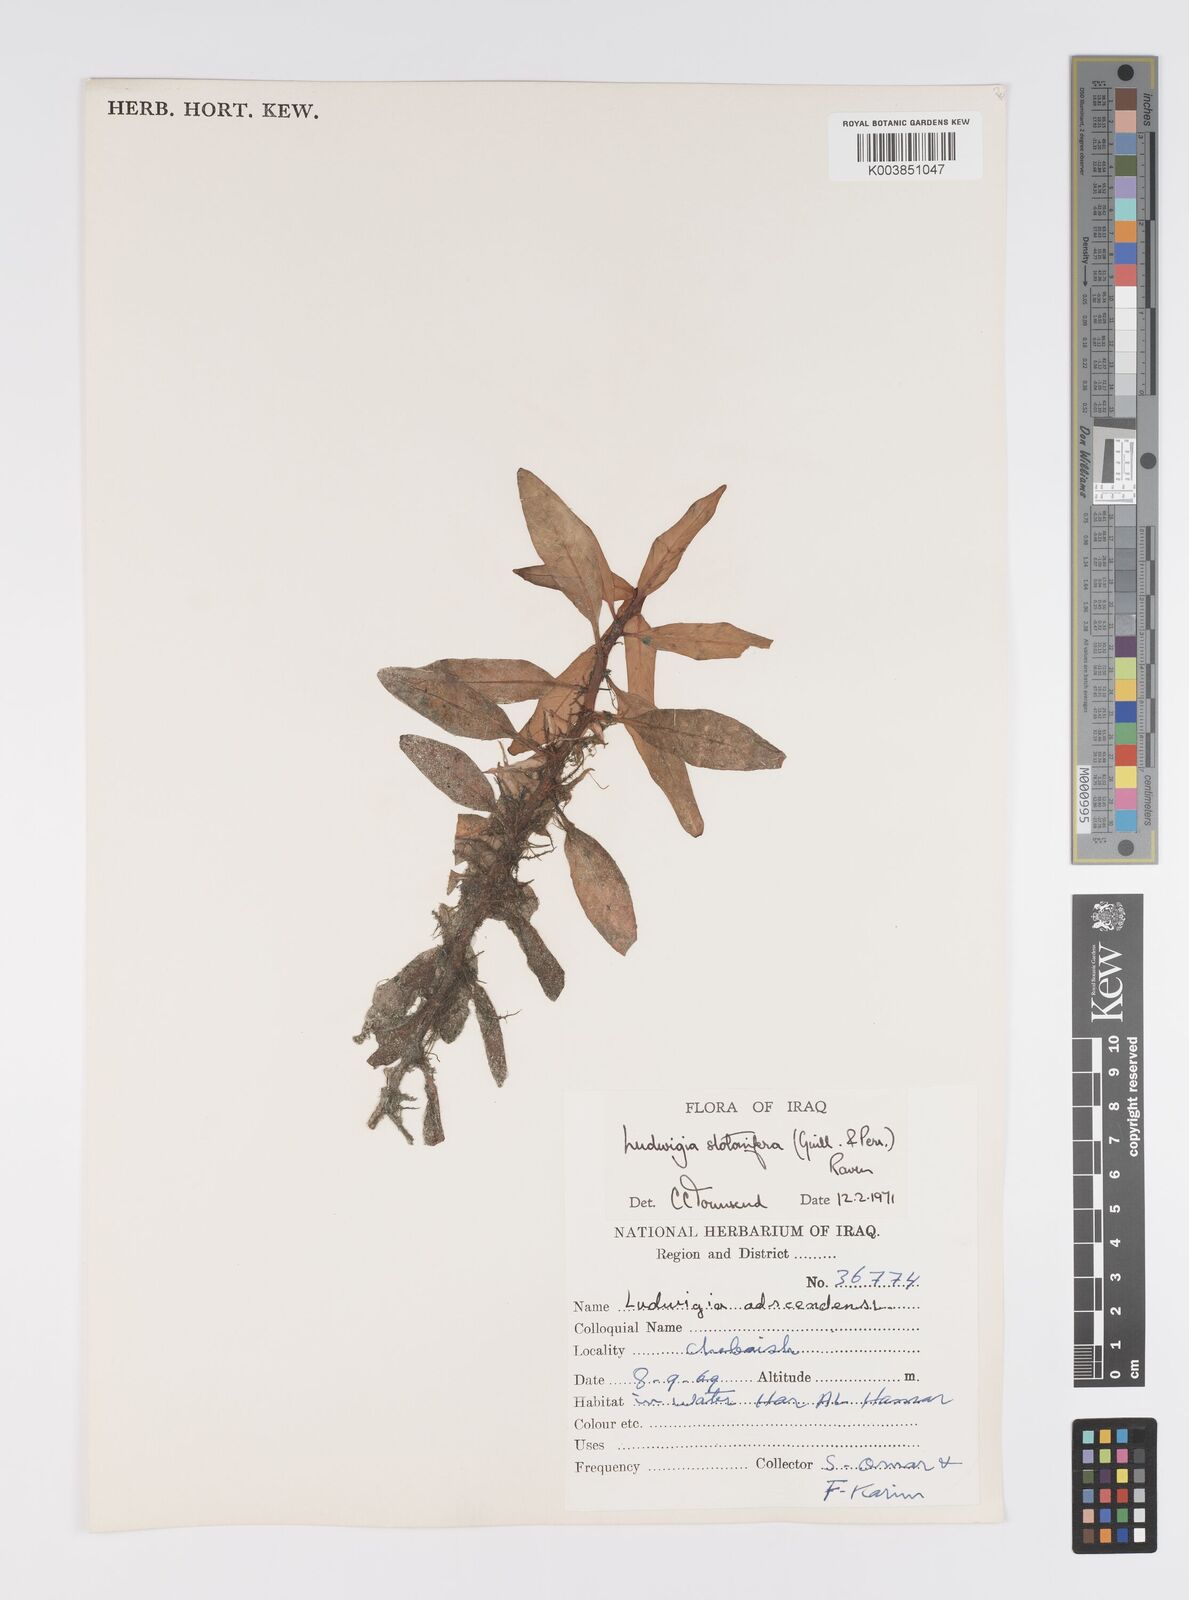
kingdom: Plantae
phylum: Tracheophyta
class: Magnoliopsida
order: Myrtales
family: Onagraceae
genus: Ludwigia
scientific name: Ludwigia adscendens
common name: Creeping water primrose
